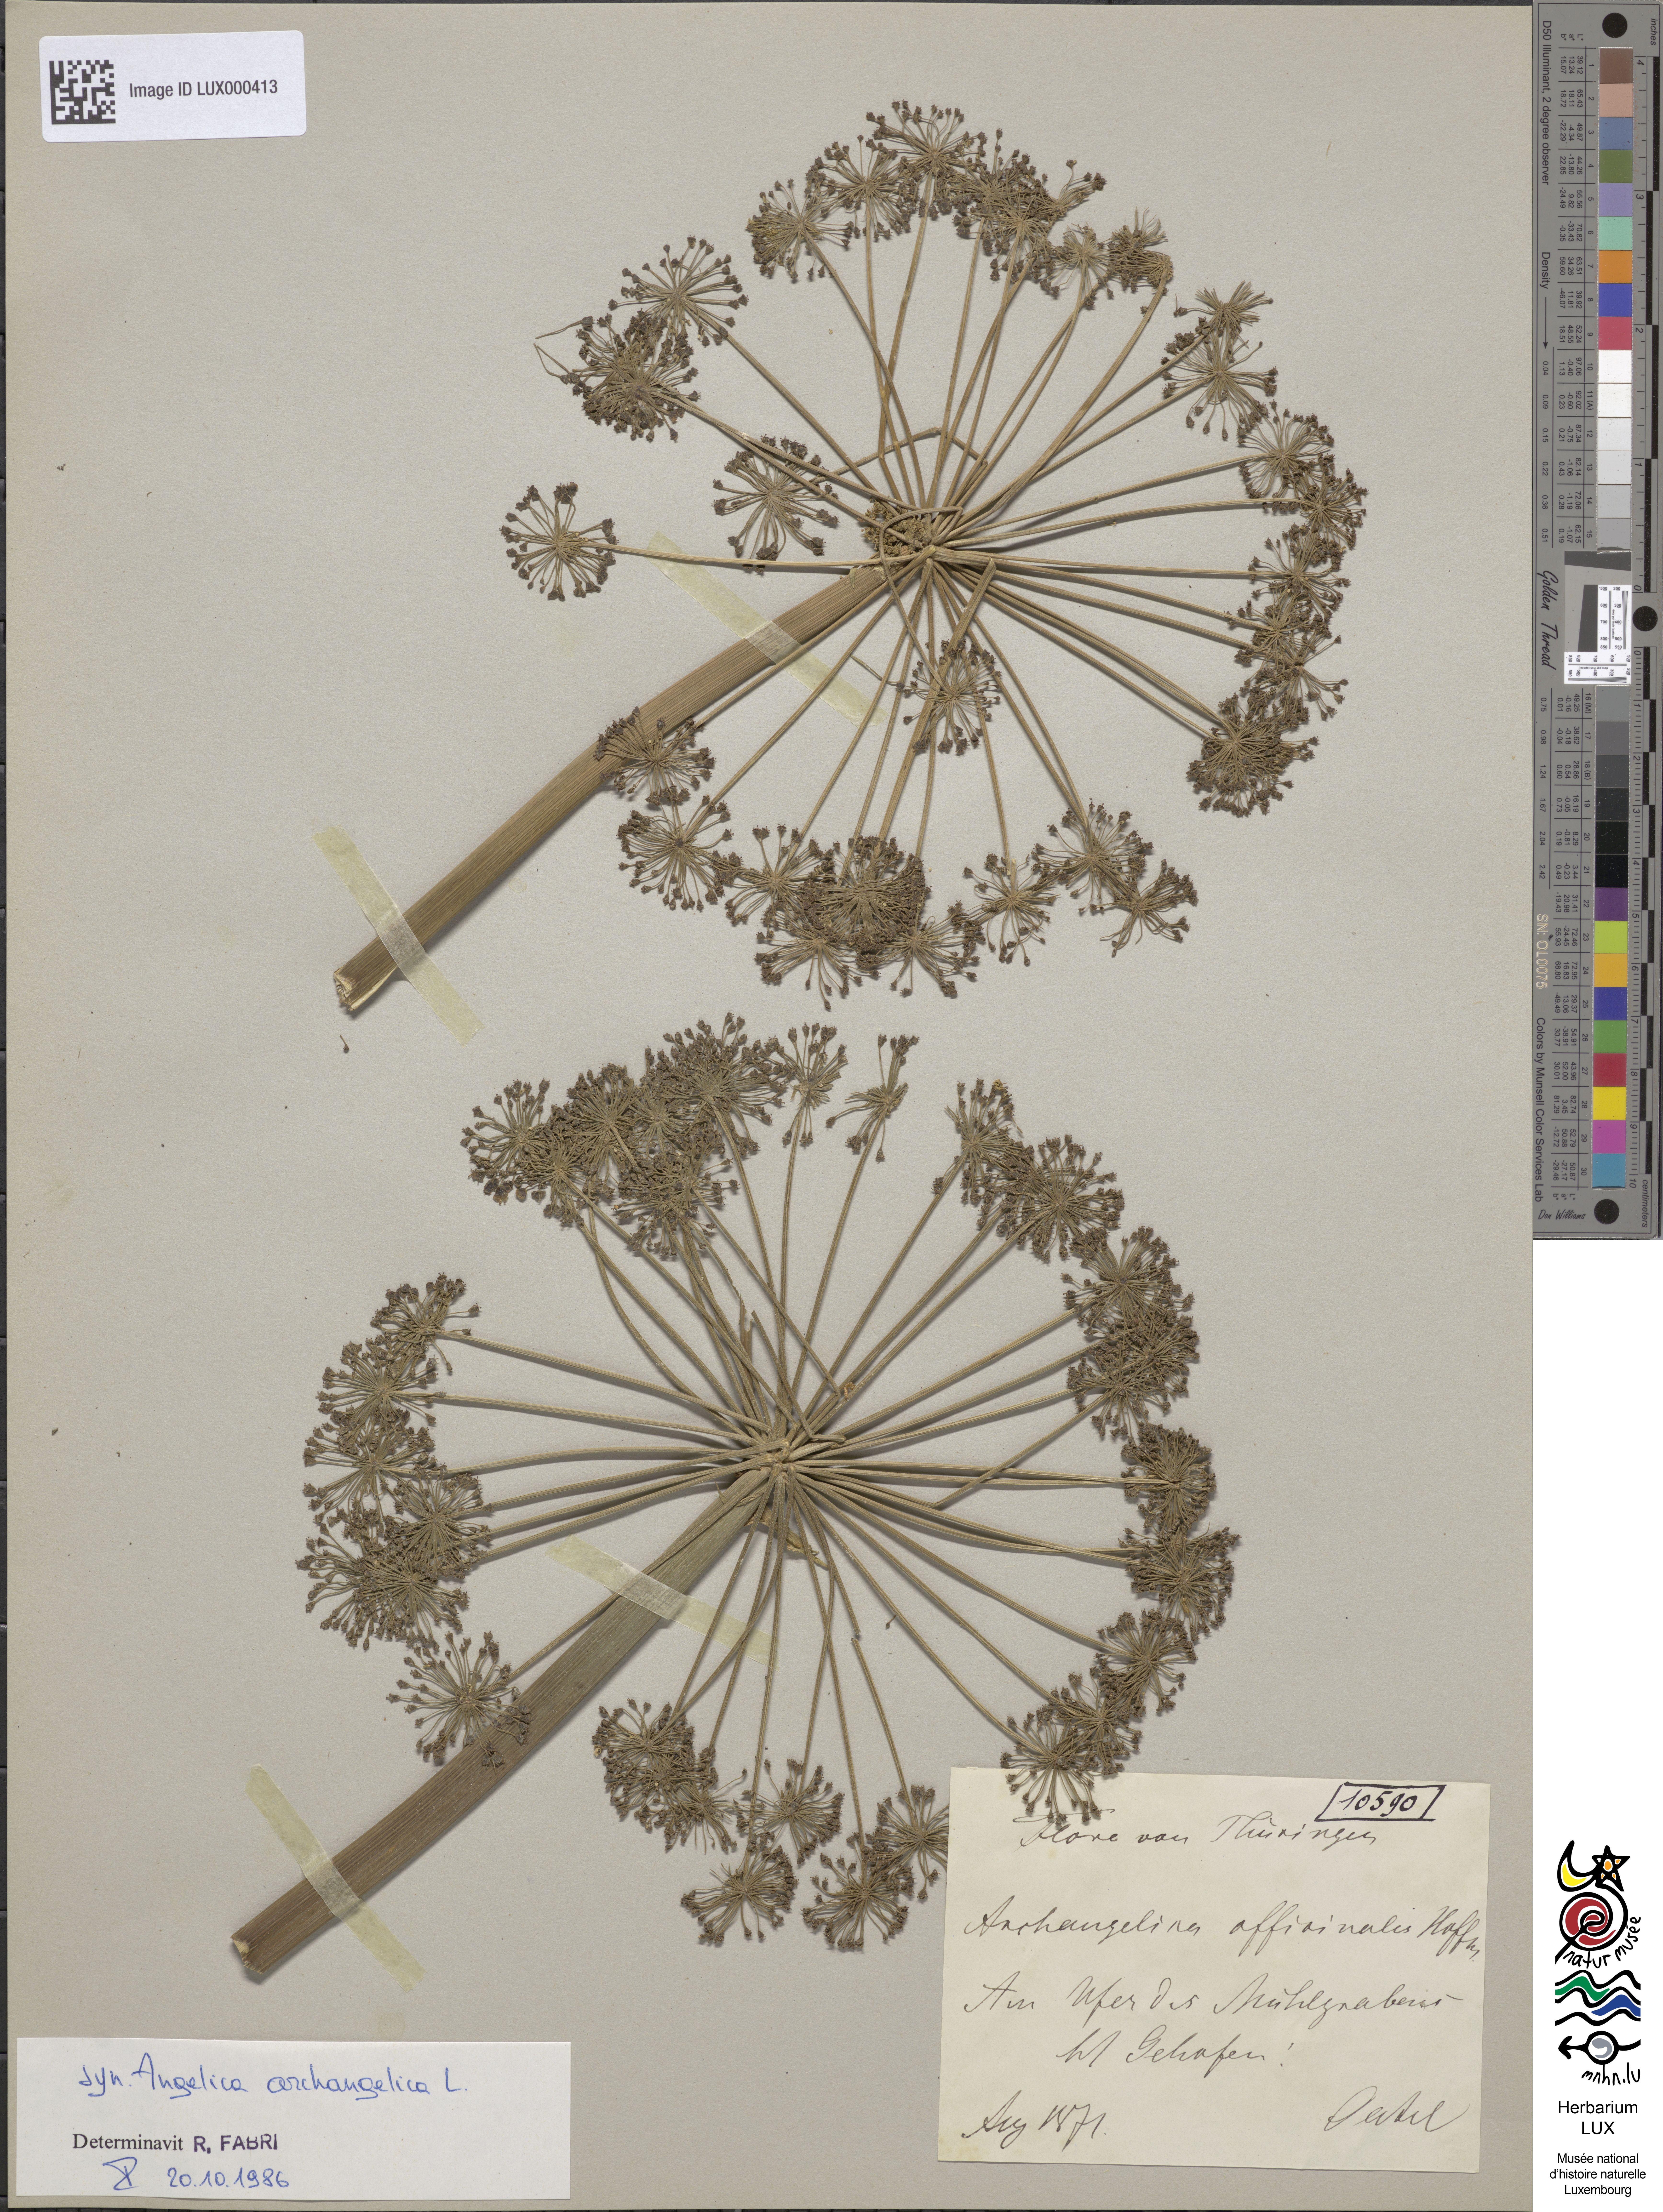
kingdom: Plantae
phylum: Tracheophyta
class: Magnoliopsida
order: Apiales
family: Apiaceae
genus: Angelica
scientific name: Angelica archangelica
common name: Garden angelica
